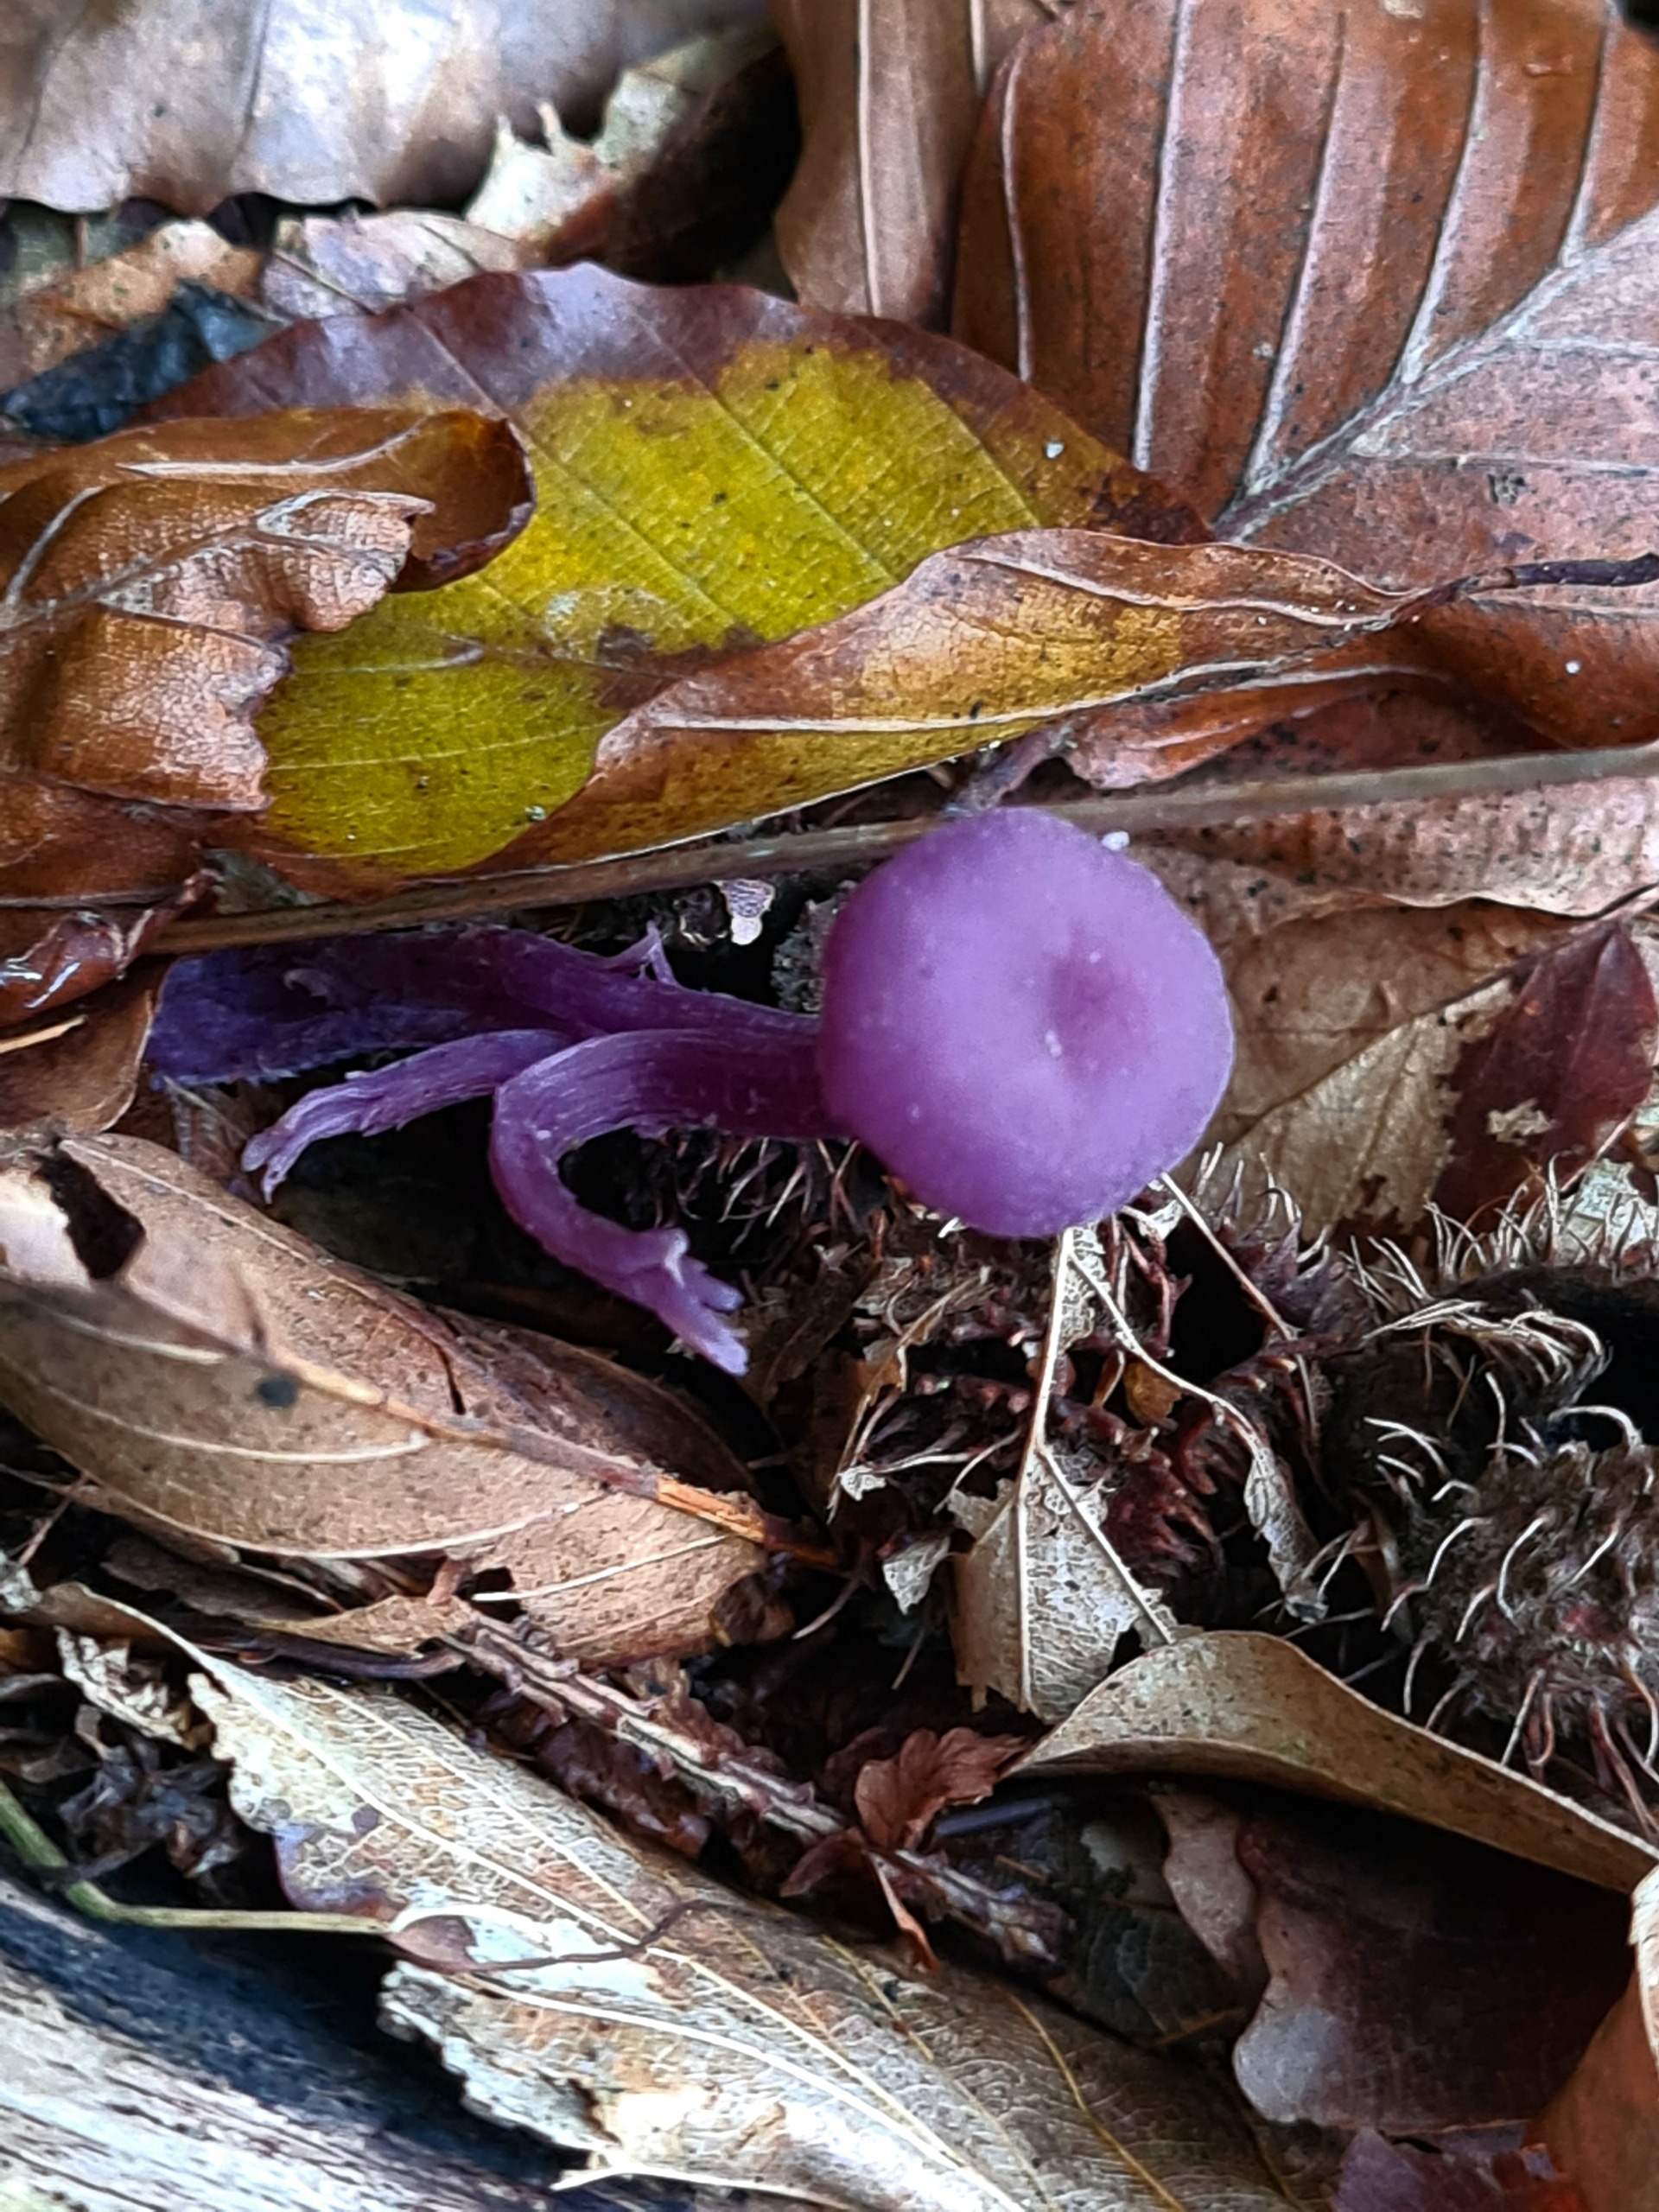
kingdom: Fungi
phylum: Basidiomycota
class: Agaricomycetes
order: Agaricales
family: Hydnangiaceae
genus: Laccaria
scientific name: Laccaria amethystina
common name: Violet ametysthat
